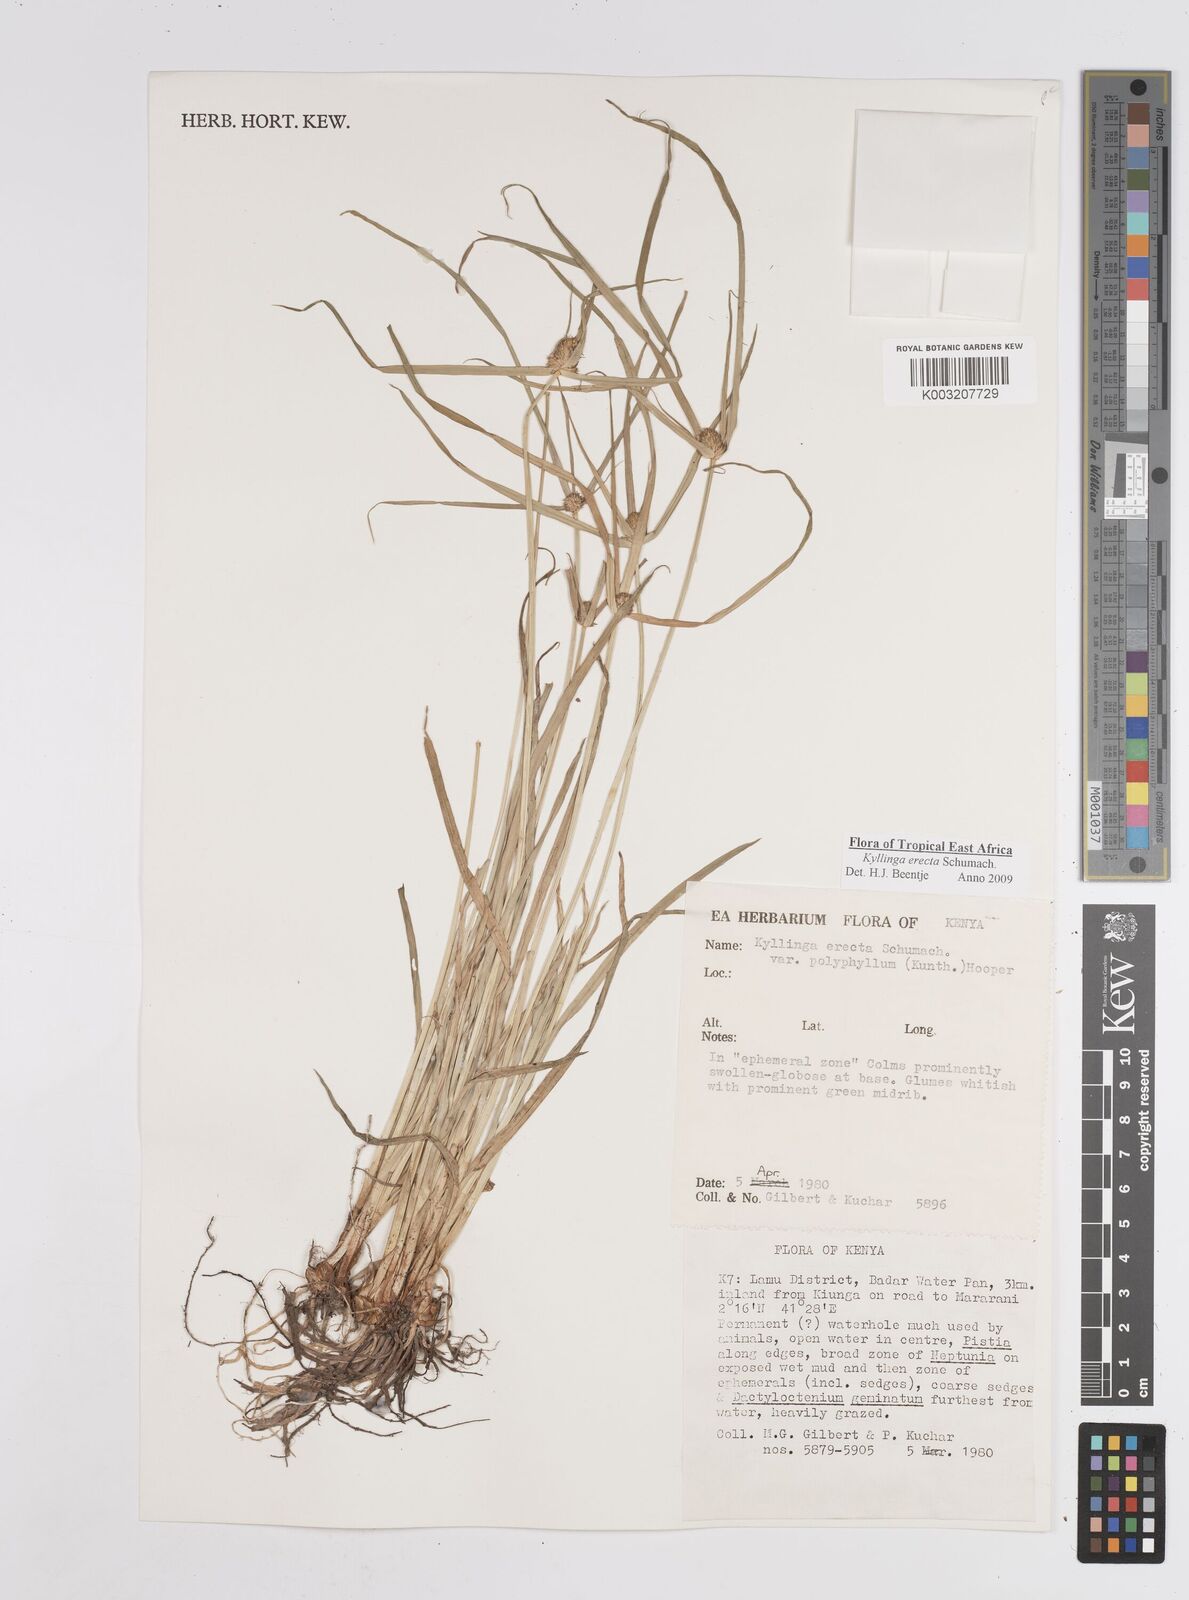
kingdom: Plantae
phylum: Tracheophyta
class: Liliopsida
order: Poales
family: Cyperaceae
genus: Cyperus
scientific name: Cyperus erectus
